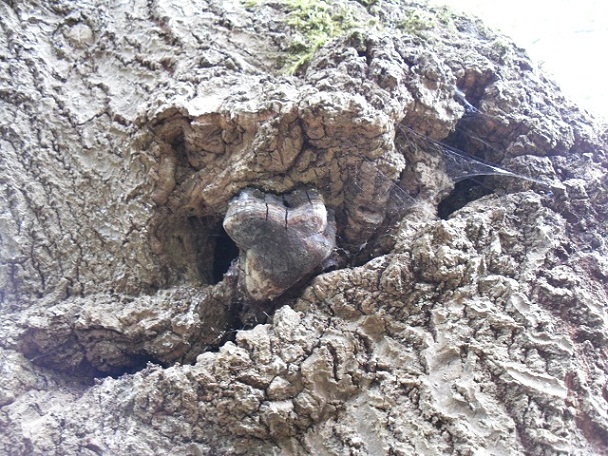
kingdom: Fungi
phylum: Basidiomycota
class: Agaricomycetes
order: Hymenochaetales
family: Hymenochaetaceae
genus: Phellinus
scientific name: Phellinus tremulae
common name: aspe-ildporesvamp
